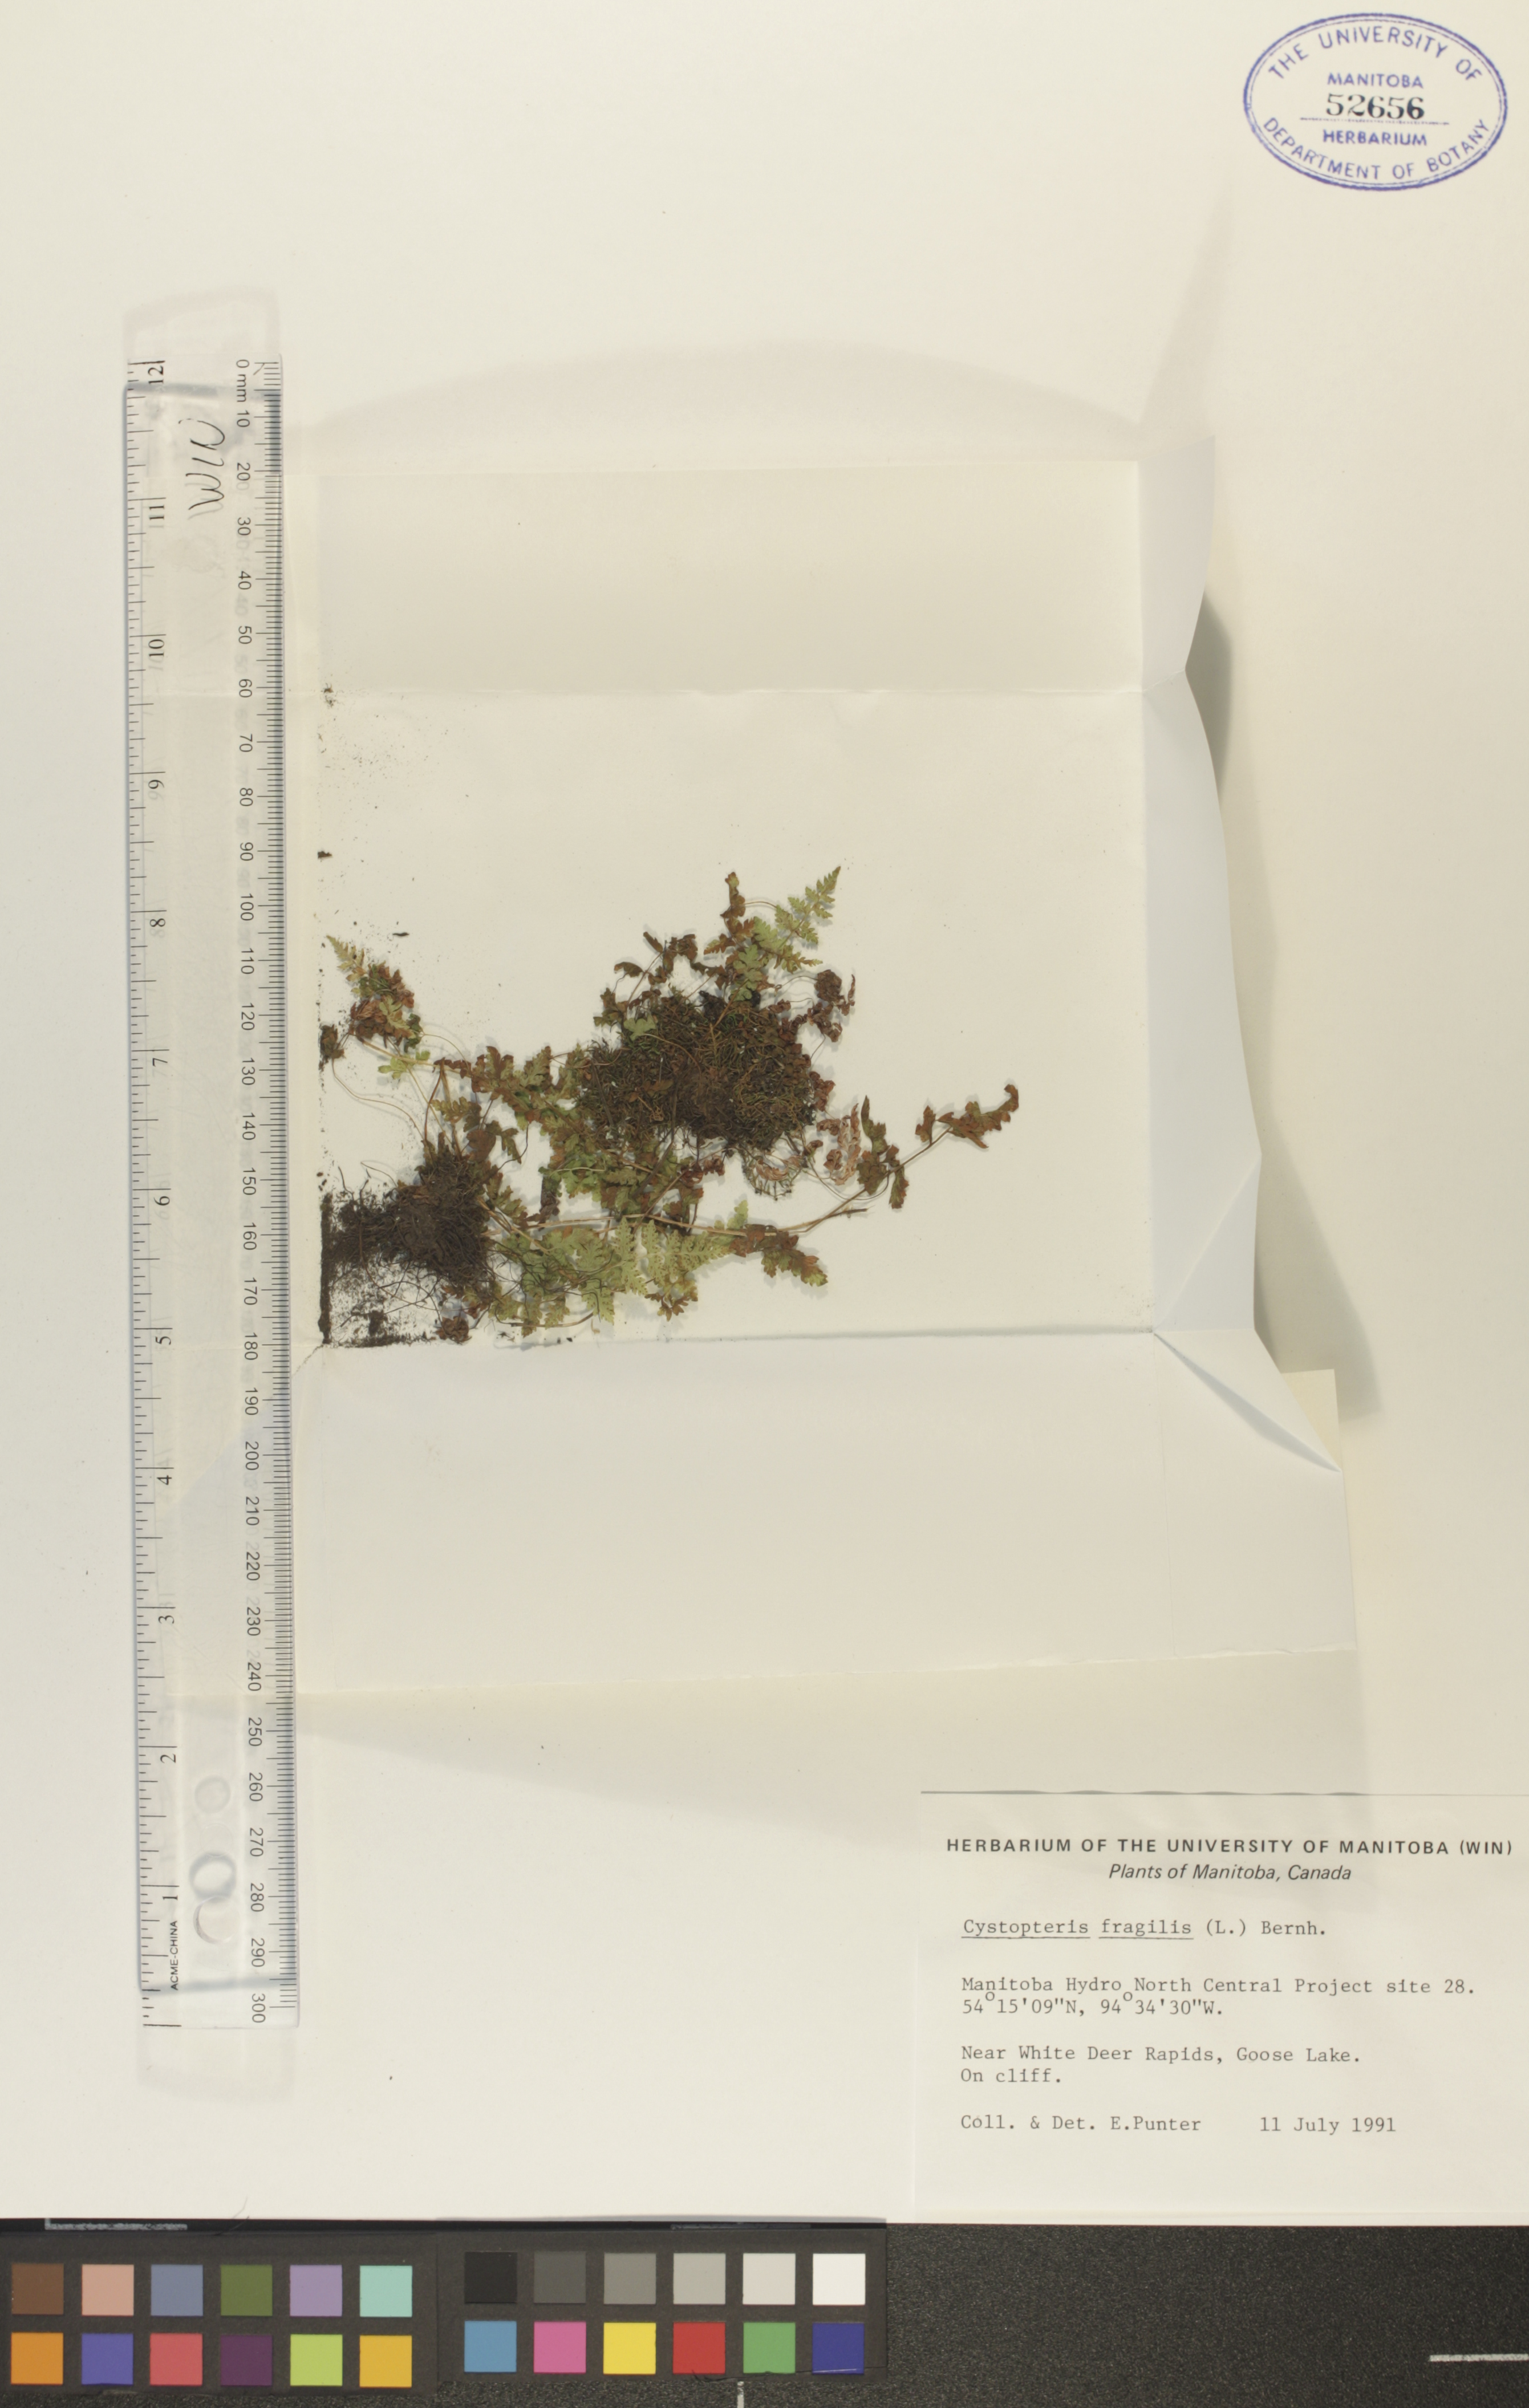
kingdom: Plantae
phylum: Tracheophyta
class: Polypodiopsida
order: Polypodiales
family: Cystopteridaceae
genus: Cystopteris
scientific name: Cystopteris fragilis
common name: Brittle bladder fern
